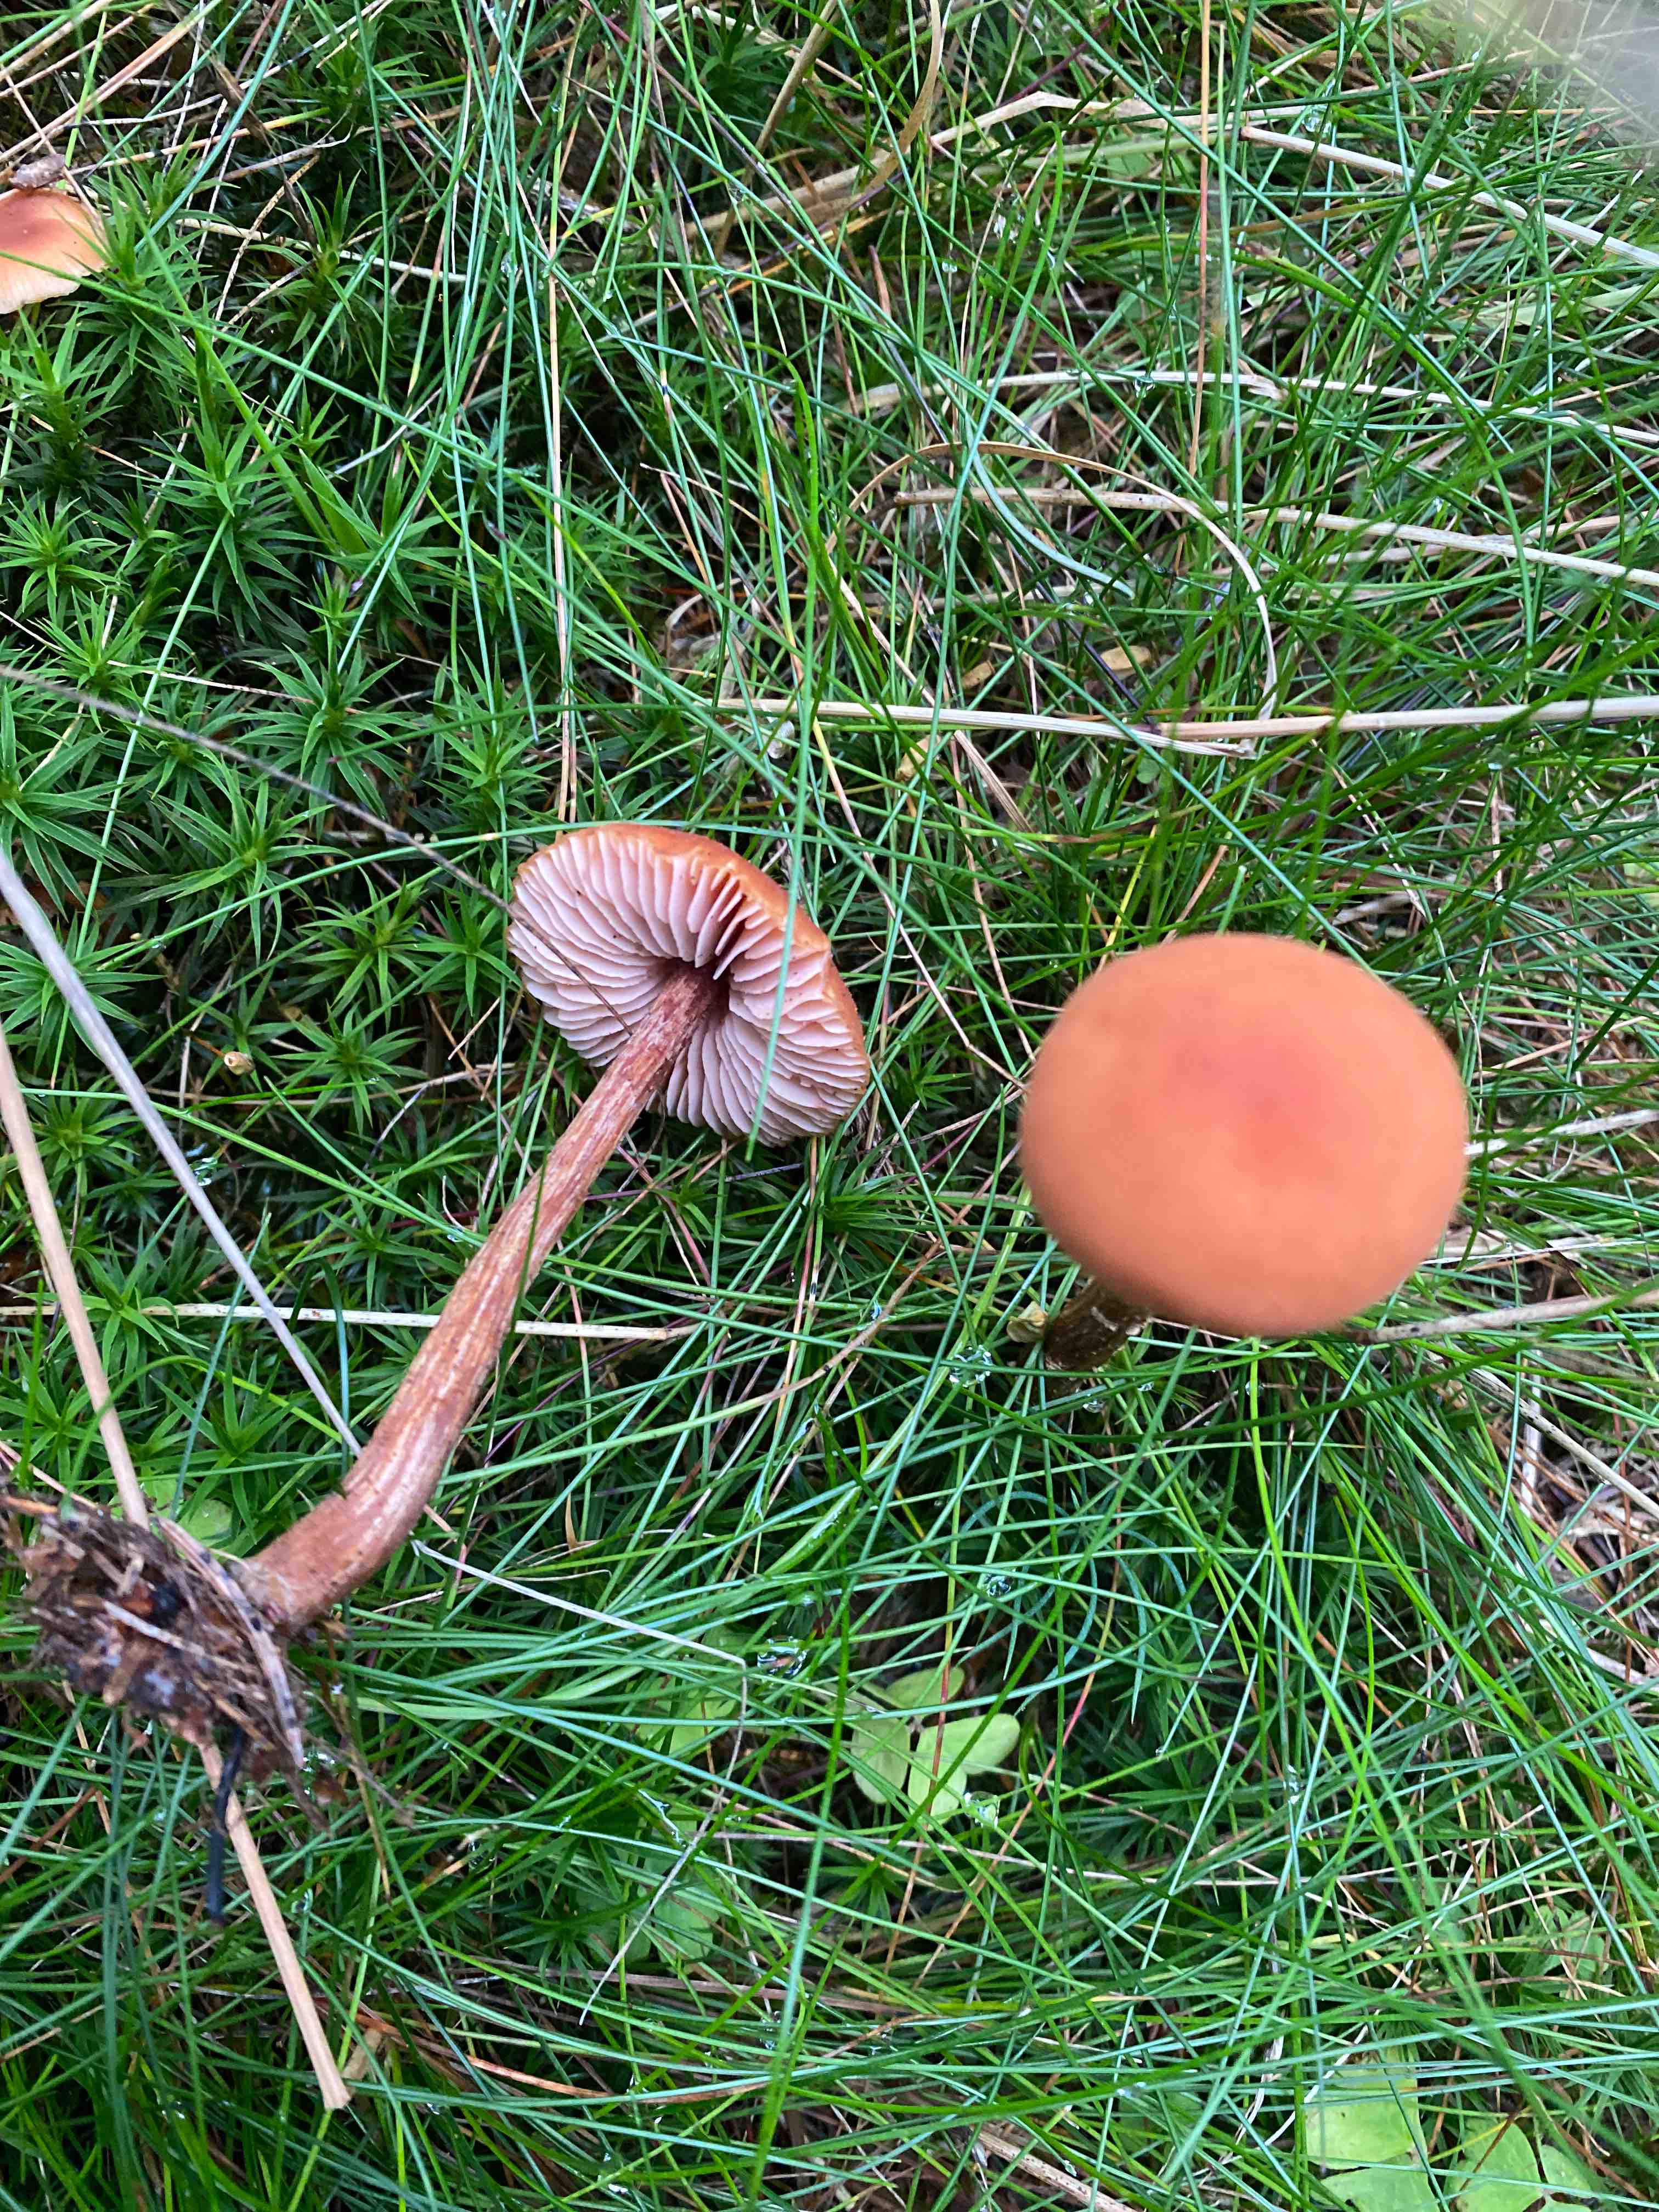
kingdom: Fungi
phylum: Basidiomycota
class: Agaricomycetes
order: Agaricales
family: Hydnangiaceae
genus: Laccaria
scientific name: Laccaria proxima
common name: stor ametysthat
